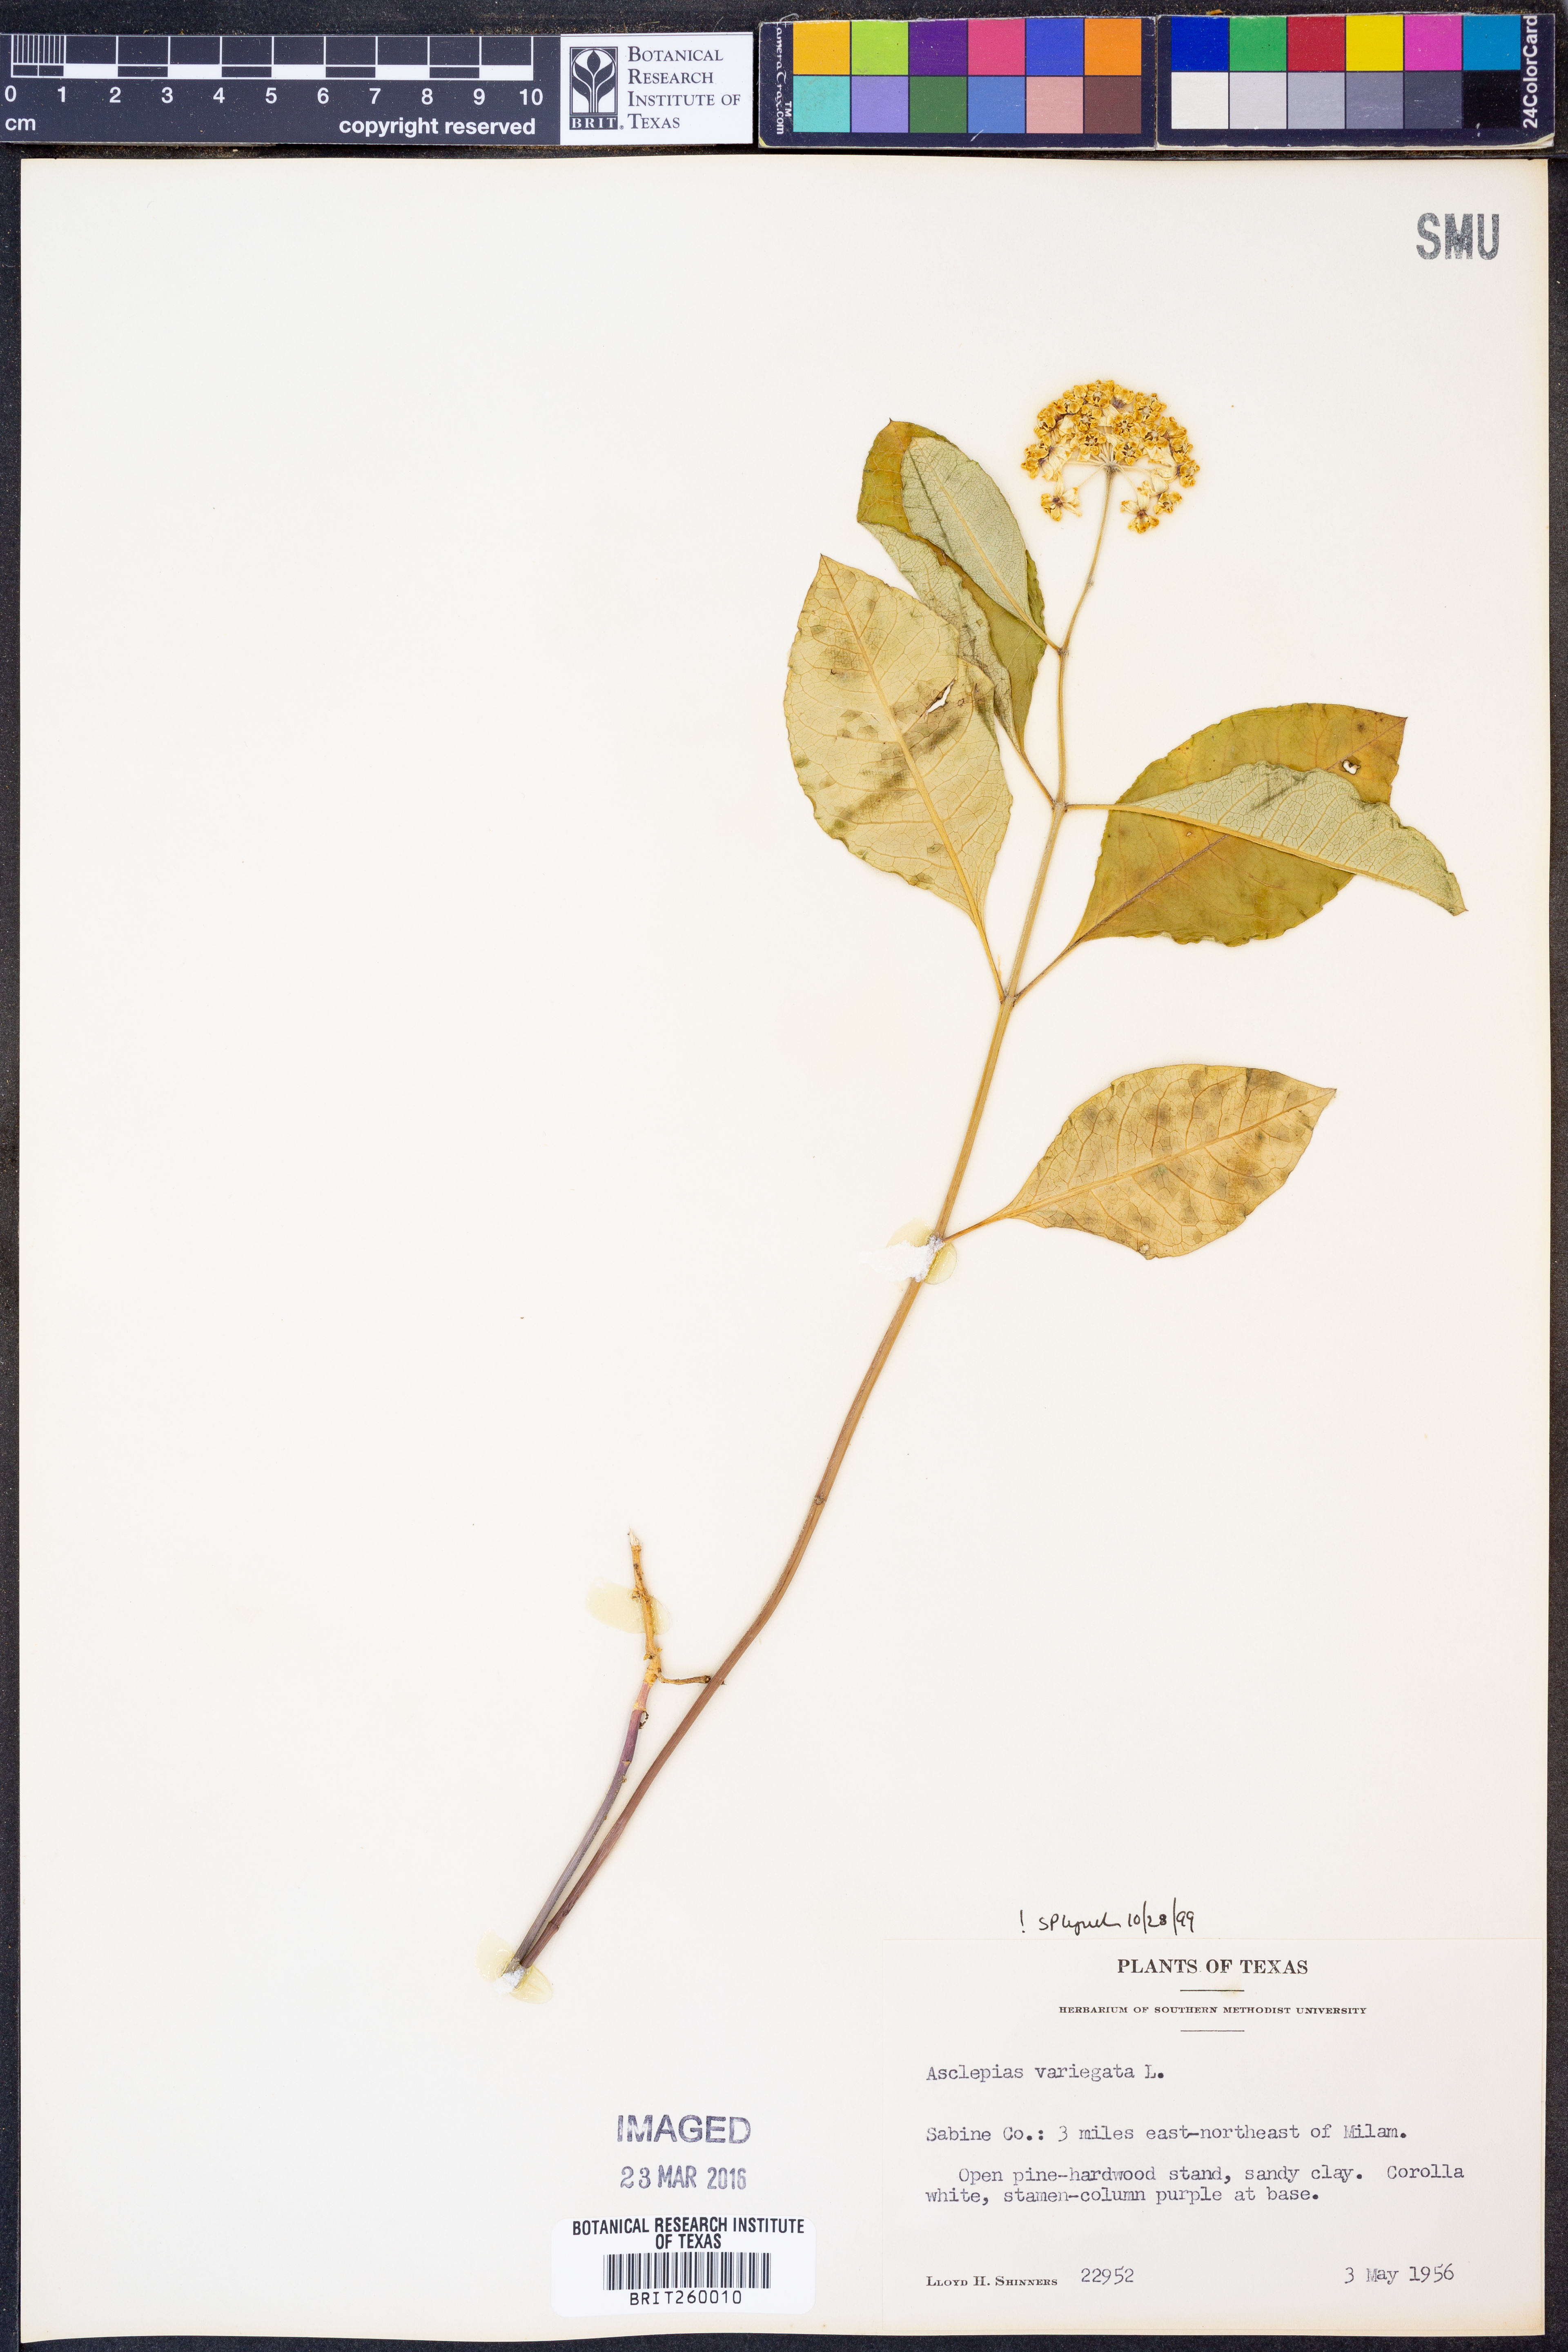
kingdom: Plantae
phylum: Tracheophyta
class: Magnoliopsida
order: Gentianales
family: Apocynaceae
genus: Asclepias
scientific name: Asclepias variegata
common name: Variegated milkweed
